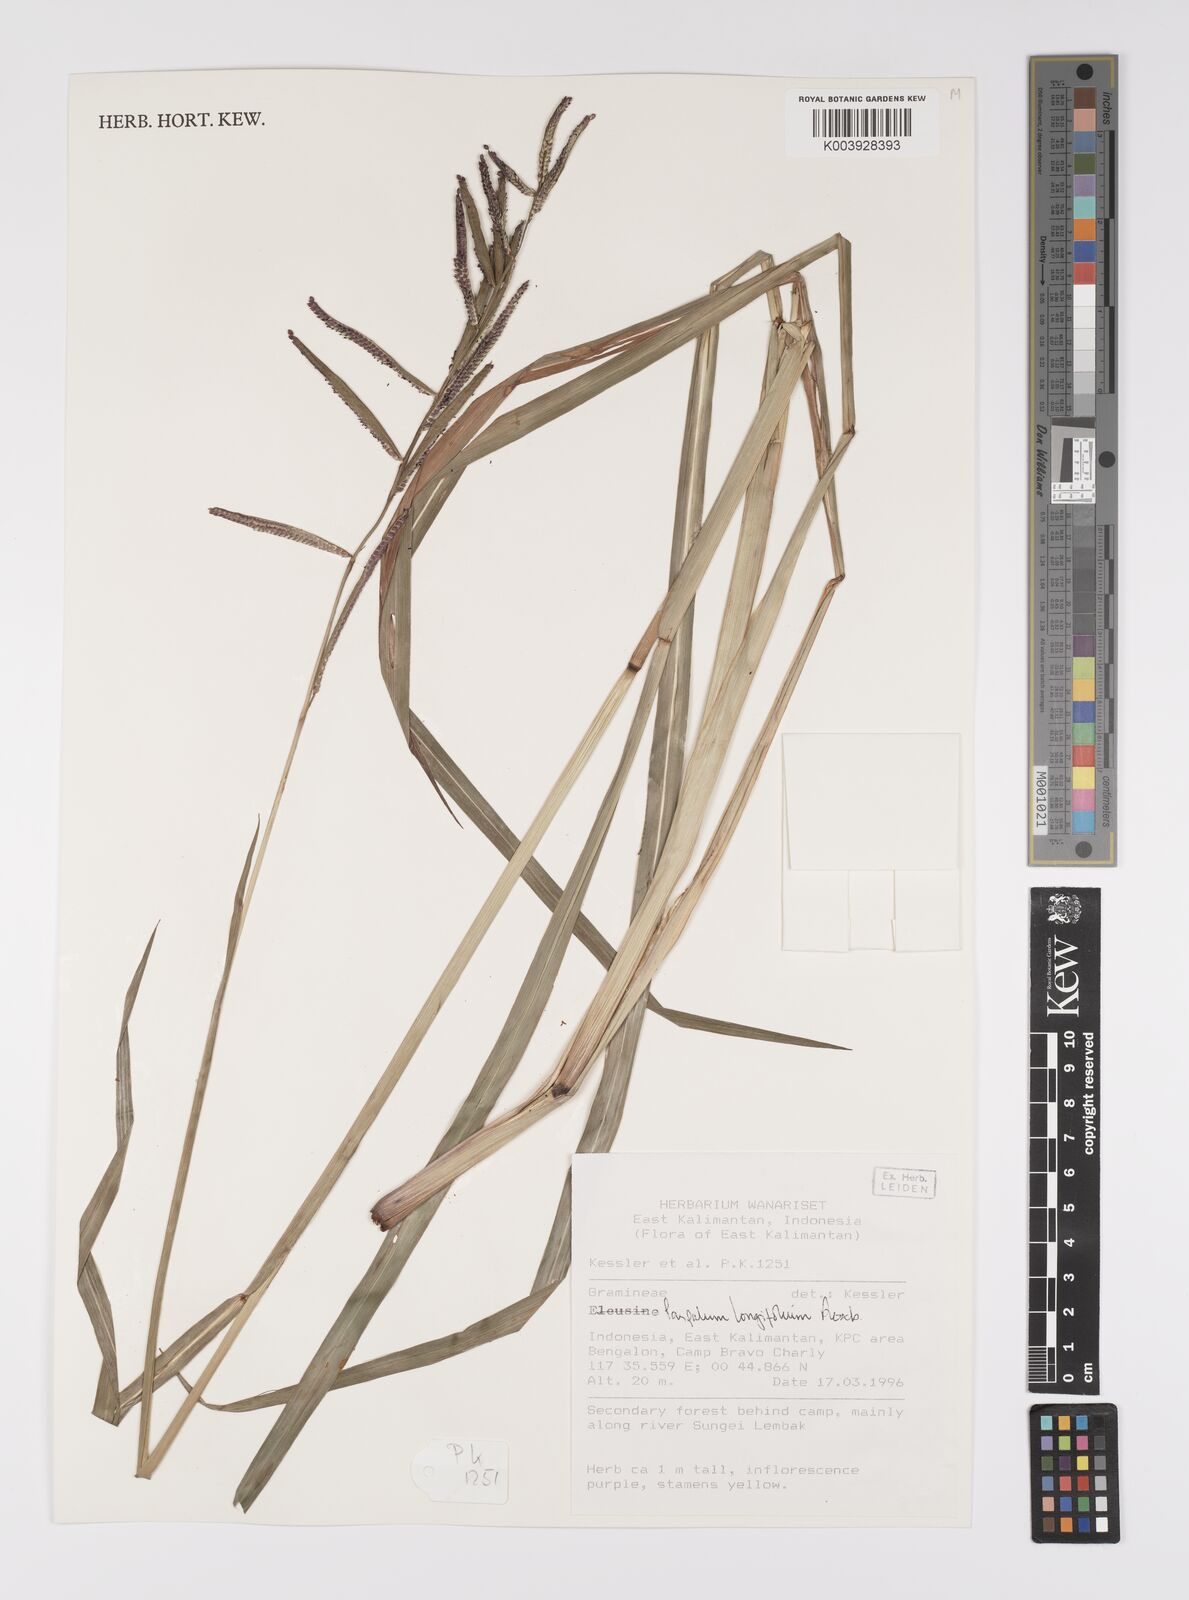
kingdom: Plantae
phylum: Tracheophyta
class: Liliopsida
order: Poales
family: Poaceae
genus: Paspalum
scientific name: Paspalum sumatrense
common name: Long-leaved paspalum
